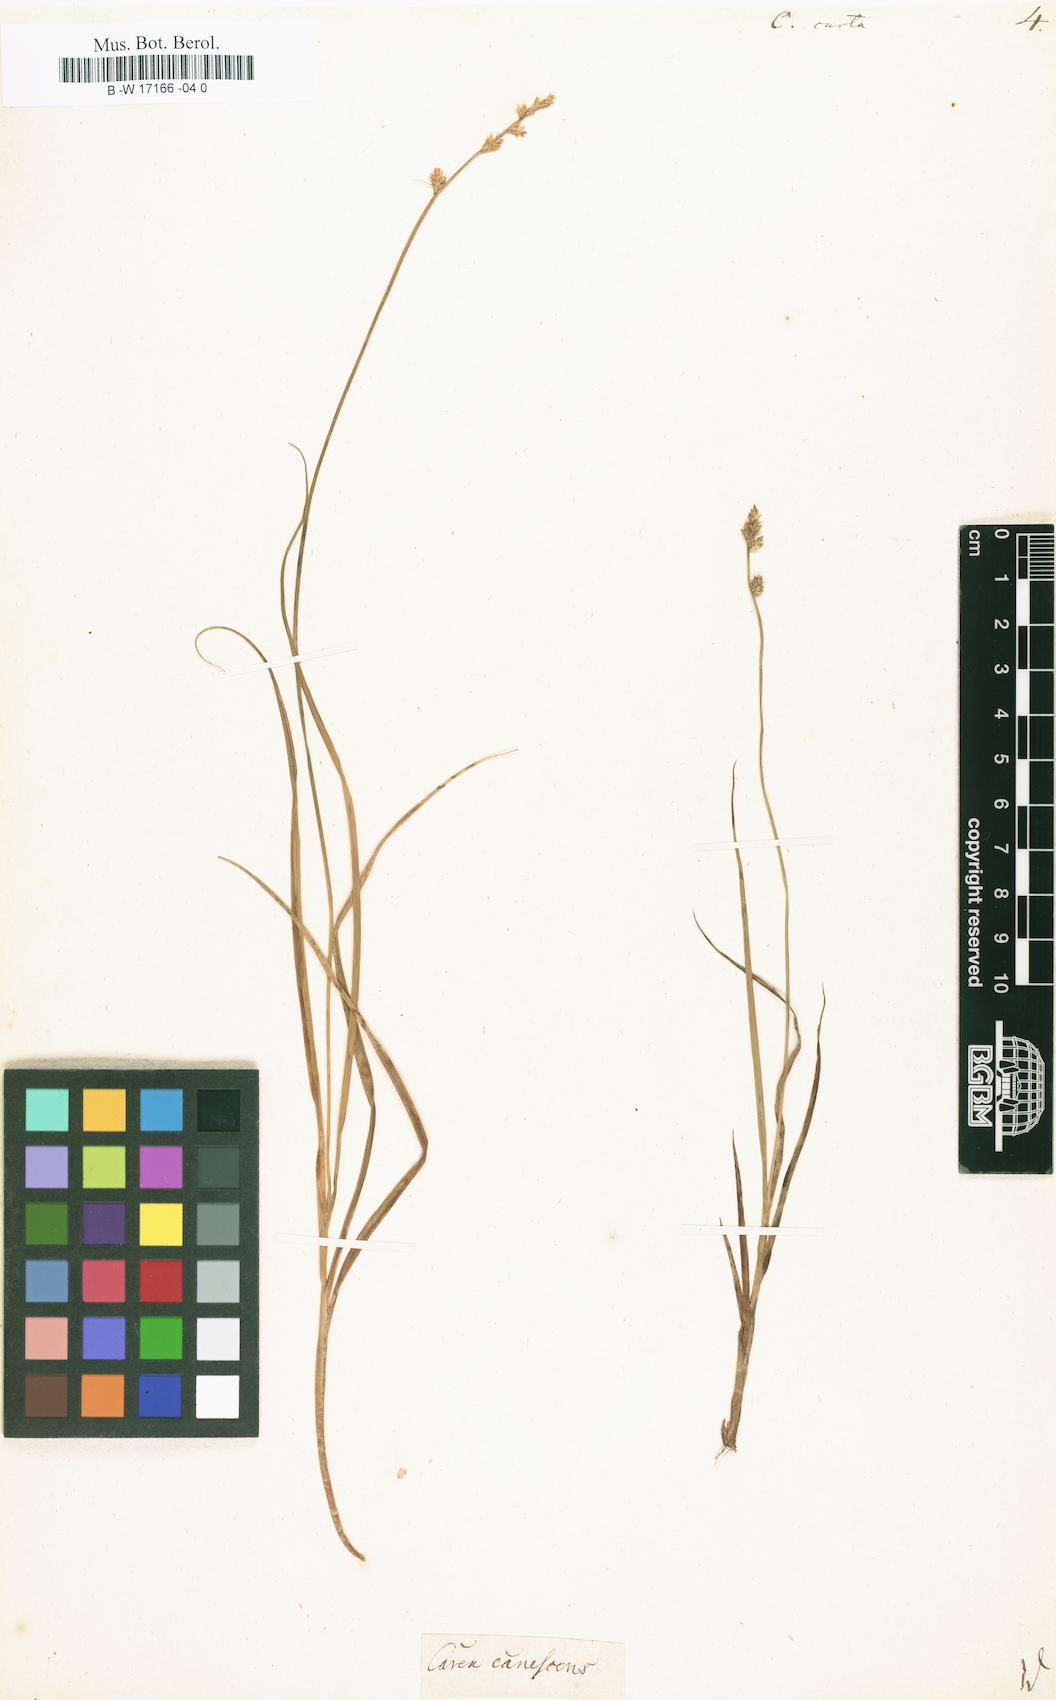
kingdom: Plantae
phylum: Tracheophyta
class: Liliopsida
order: Poales
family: Cyperaceae
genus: Carex
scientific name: Carex curta
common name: White sedge
